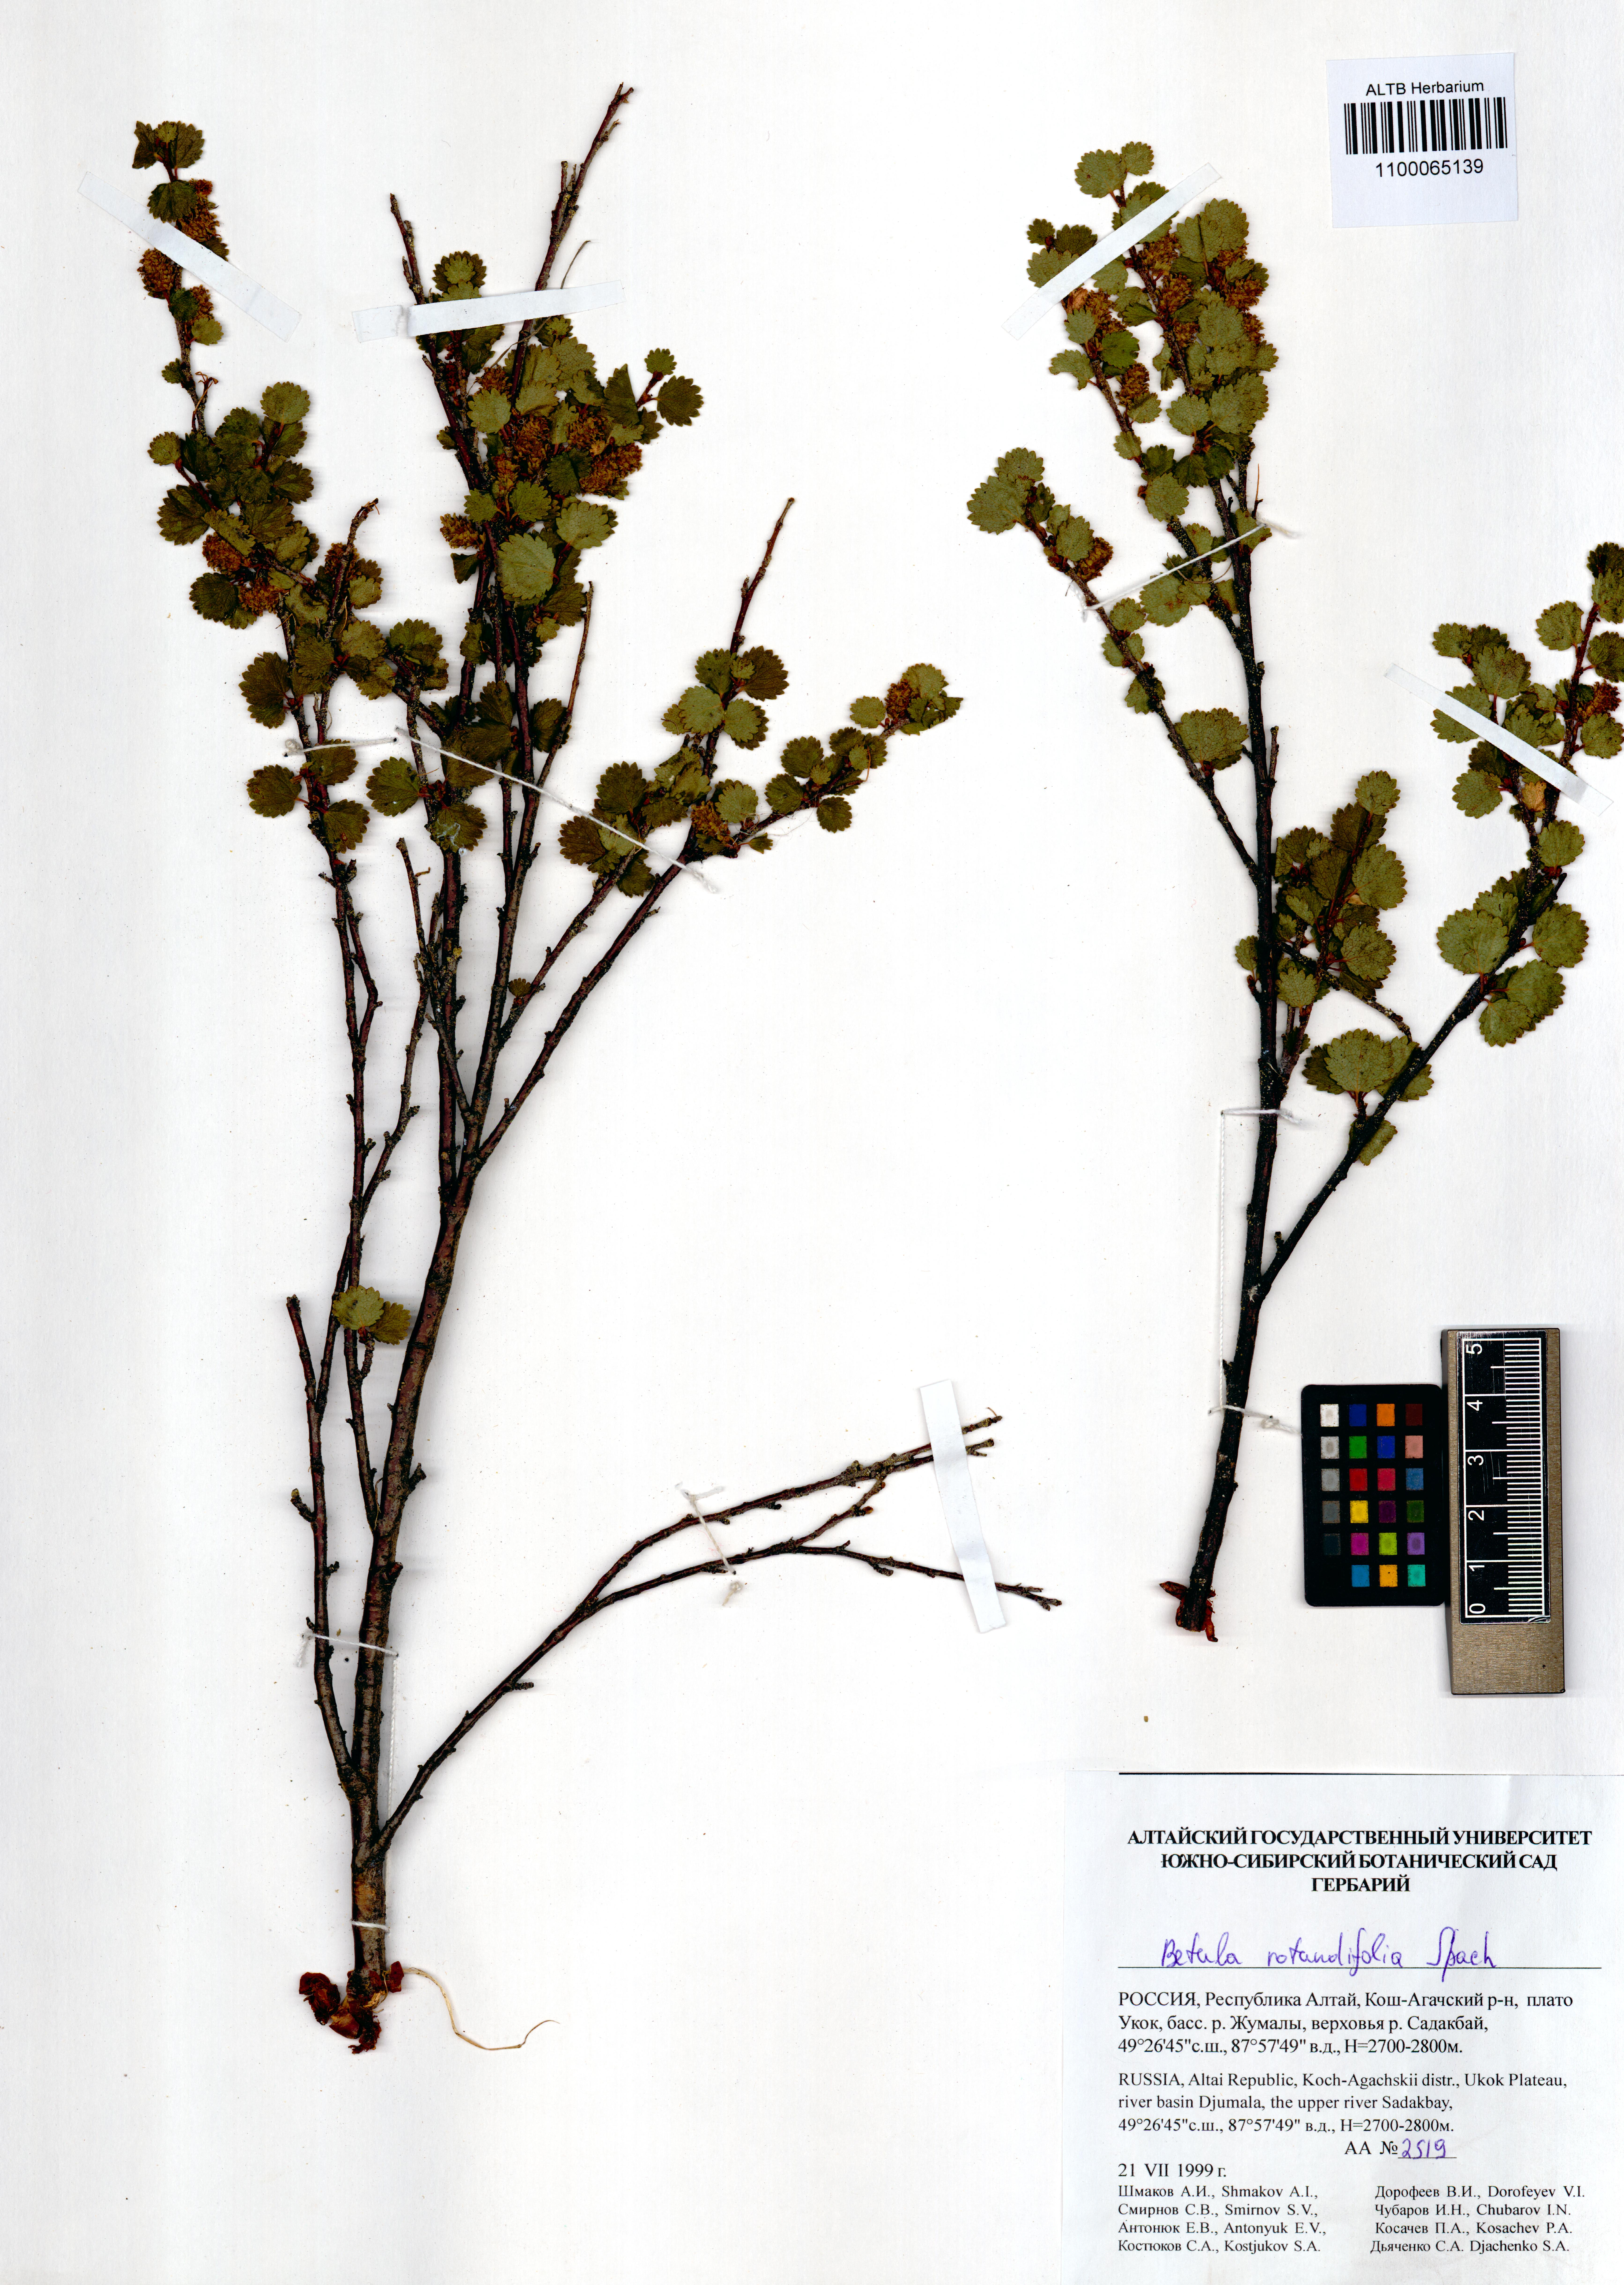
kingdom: Plantae
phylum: Tracheophyta
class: Magnoliopsida
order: Fagales
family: Betulaceae
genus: Betula
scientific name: Betula glandulosa
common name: Dwarf birch
